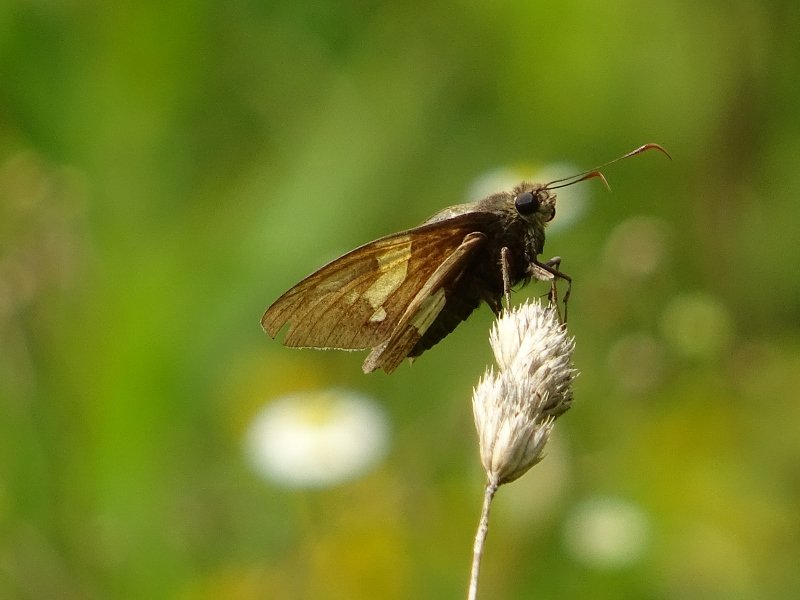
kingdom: Animalia
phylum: Arthropoda
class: Insecta
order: Lepidoptera
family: Hesperiidae
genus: Epargyreus
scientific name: Epargyreus clarus
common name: Silver-spotted Skipper
